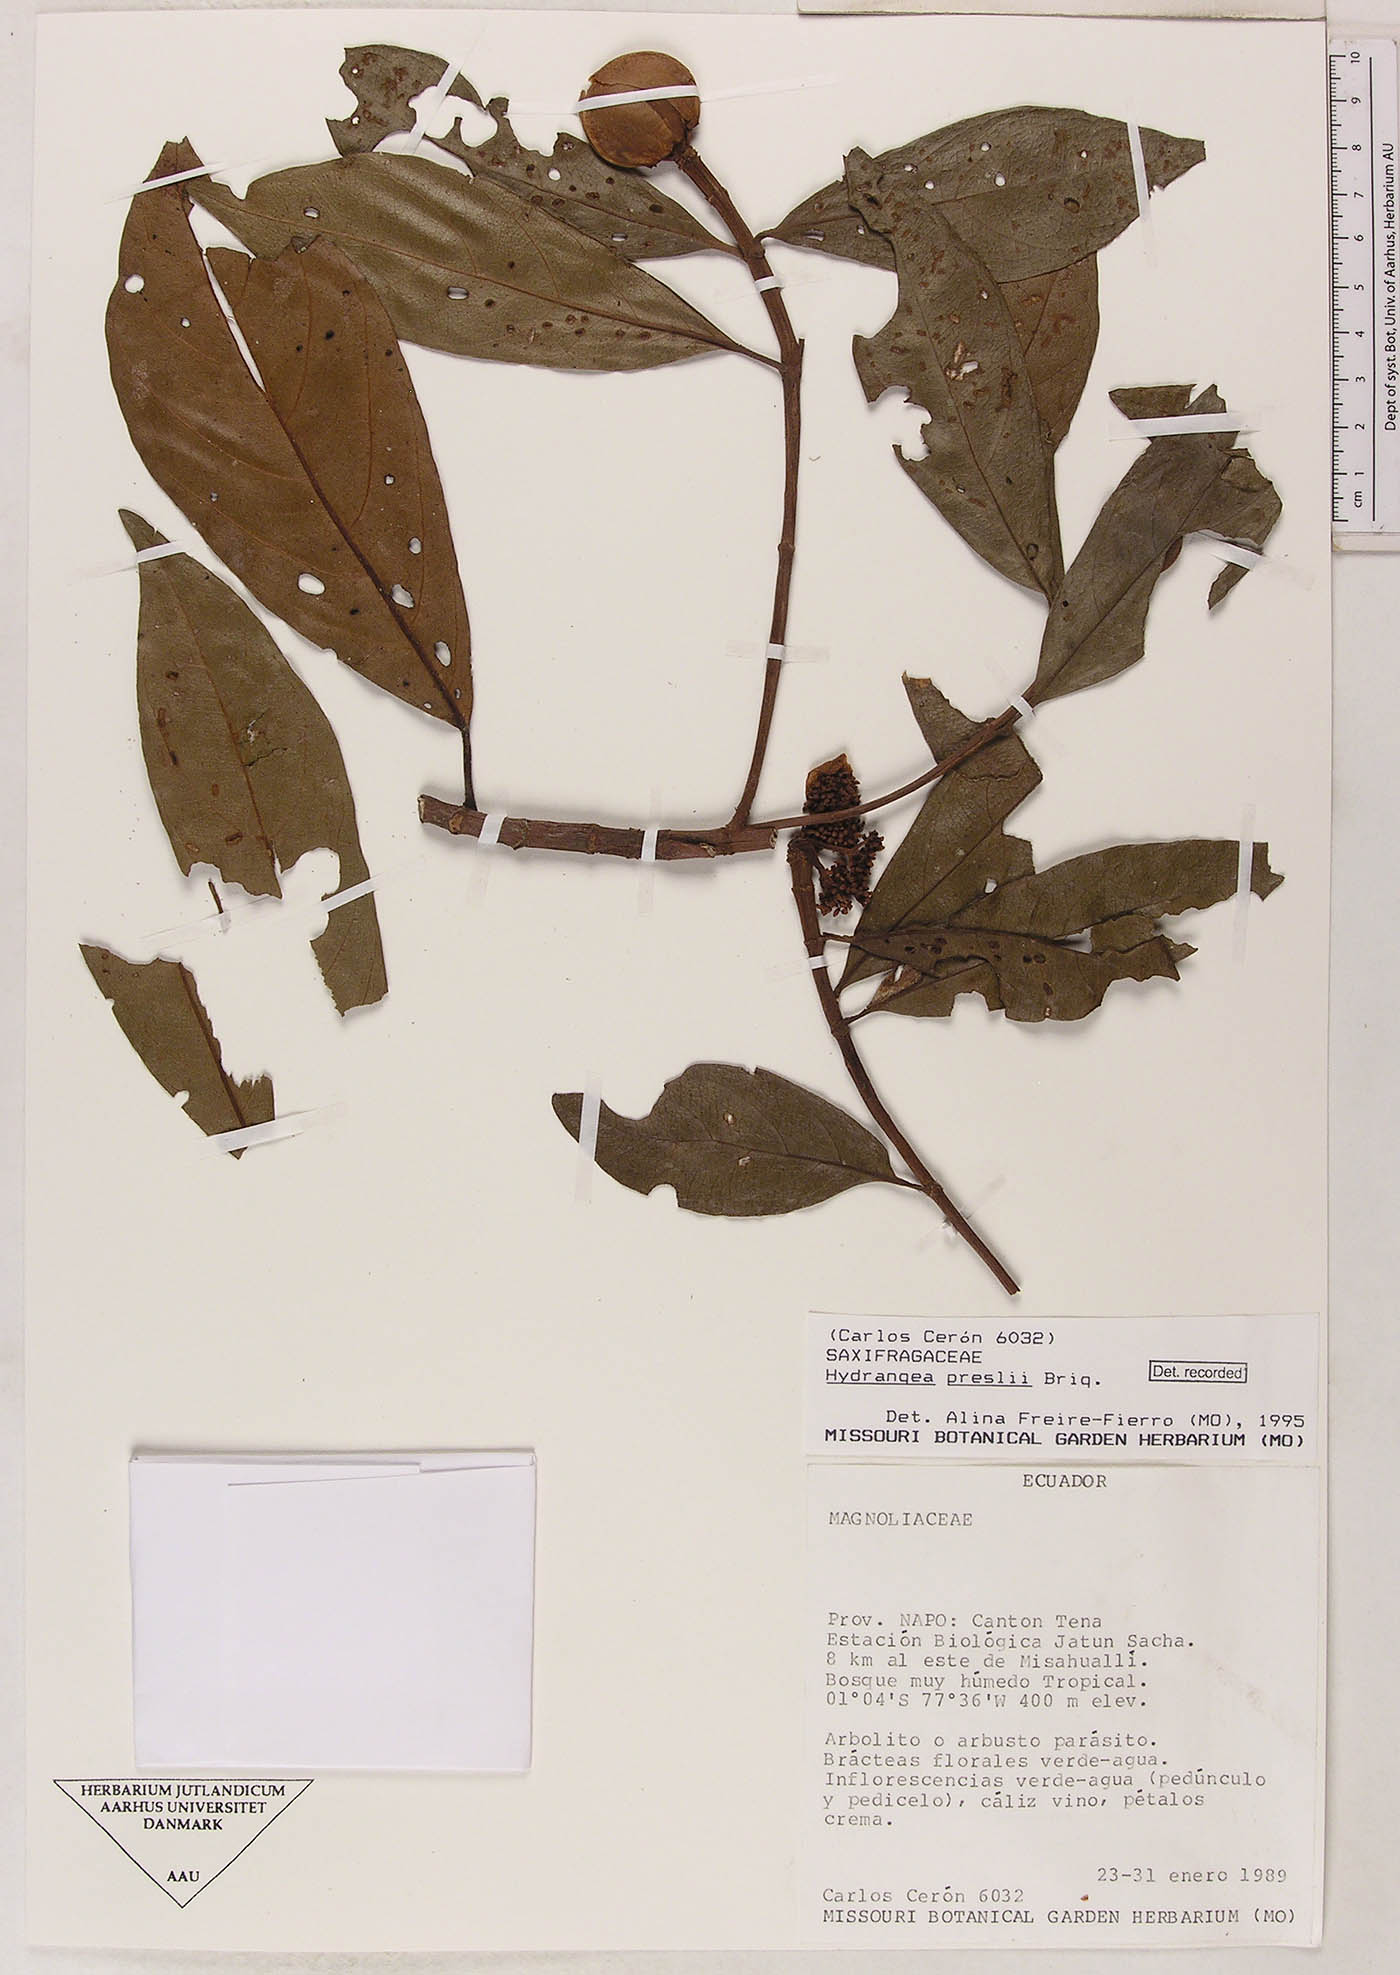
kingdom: Plantae
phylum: Tracheophyta
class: Magnoliopsida
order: Cornales
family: Hydrangeaceae
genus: Hydrangea
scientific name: Hydrangea diplostemona
